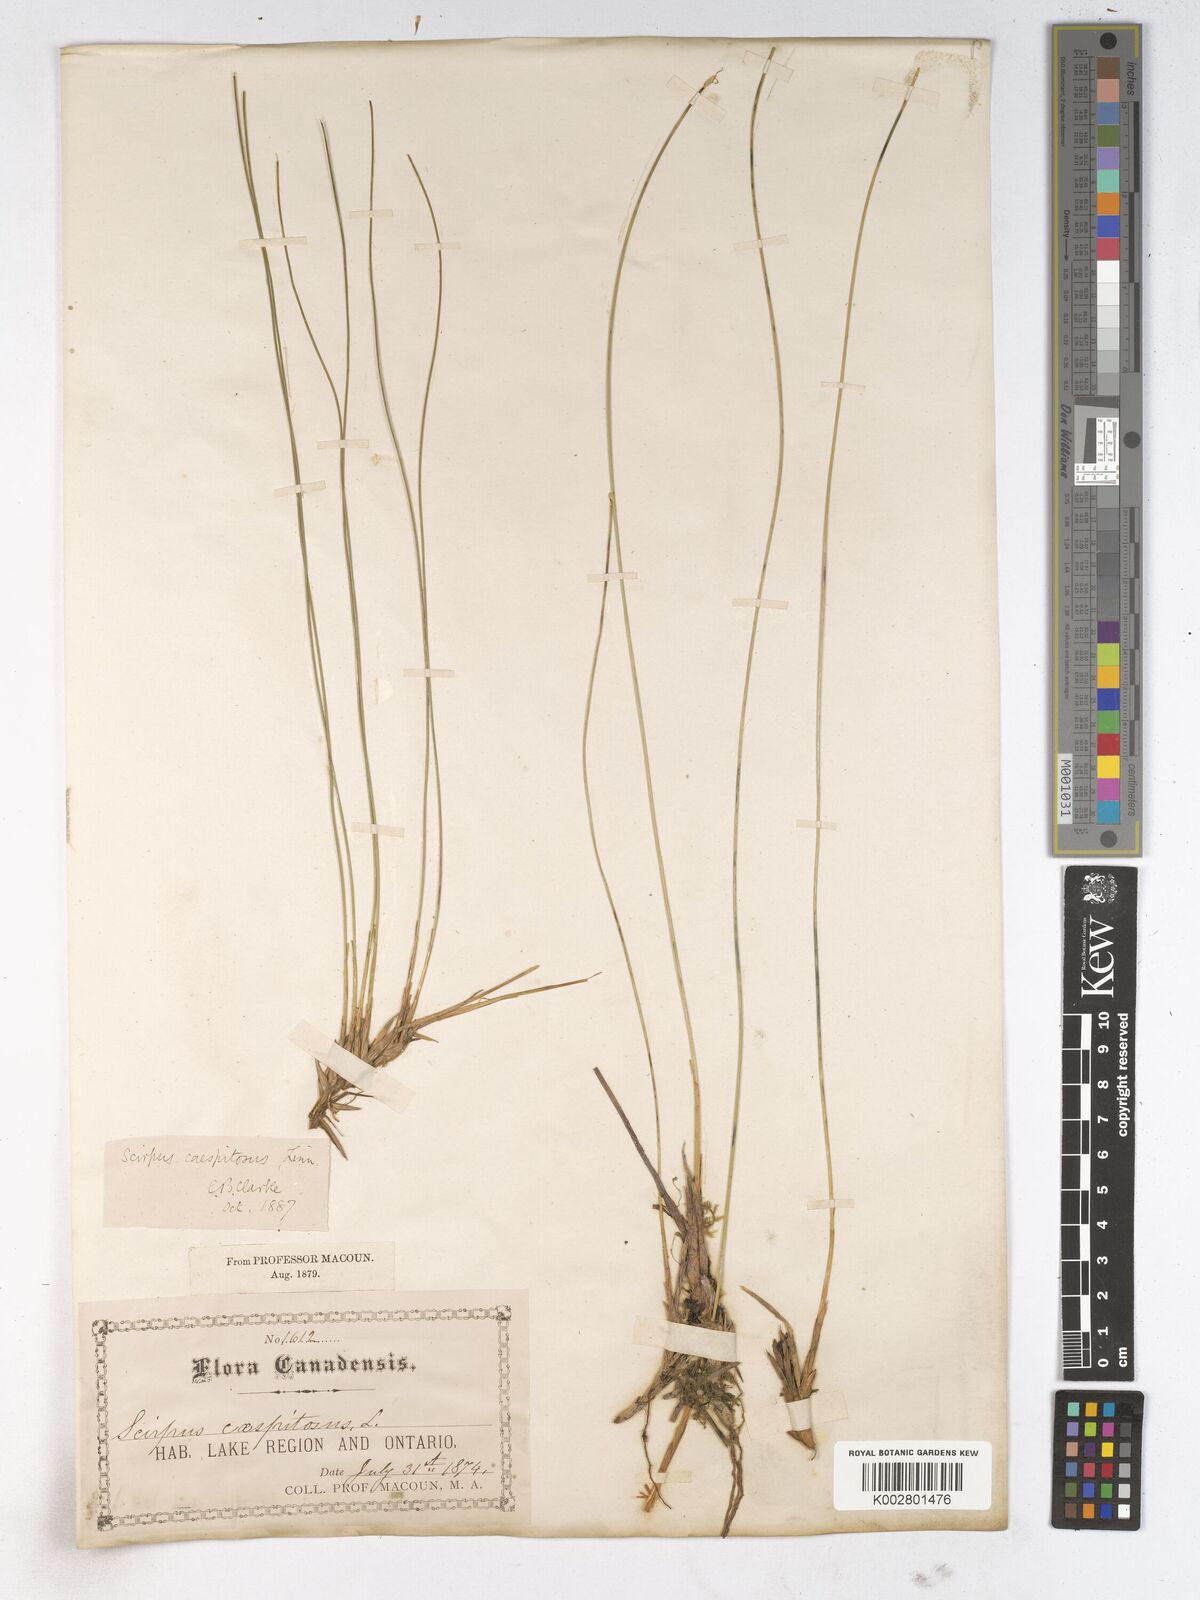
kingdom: Plantae
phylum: Tracheophyta
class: Liliopsida
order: Poales
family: Cyperaceae
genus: Trichophorum
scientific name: Trichophorum cespitosum
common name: Cespitose bulrush
